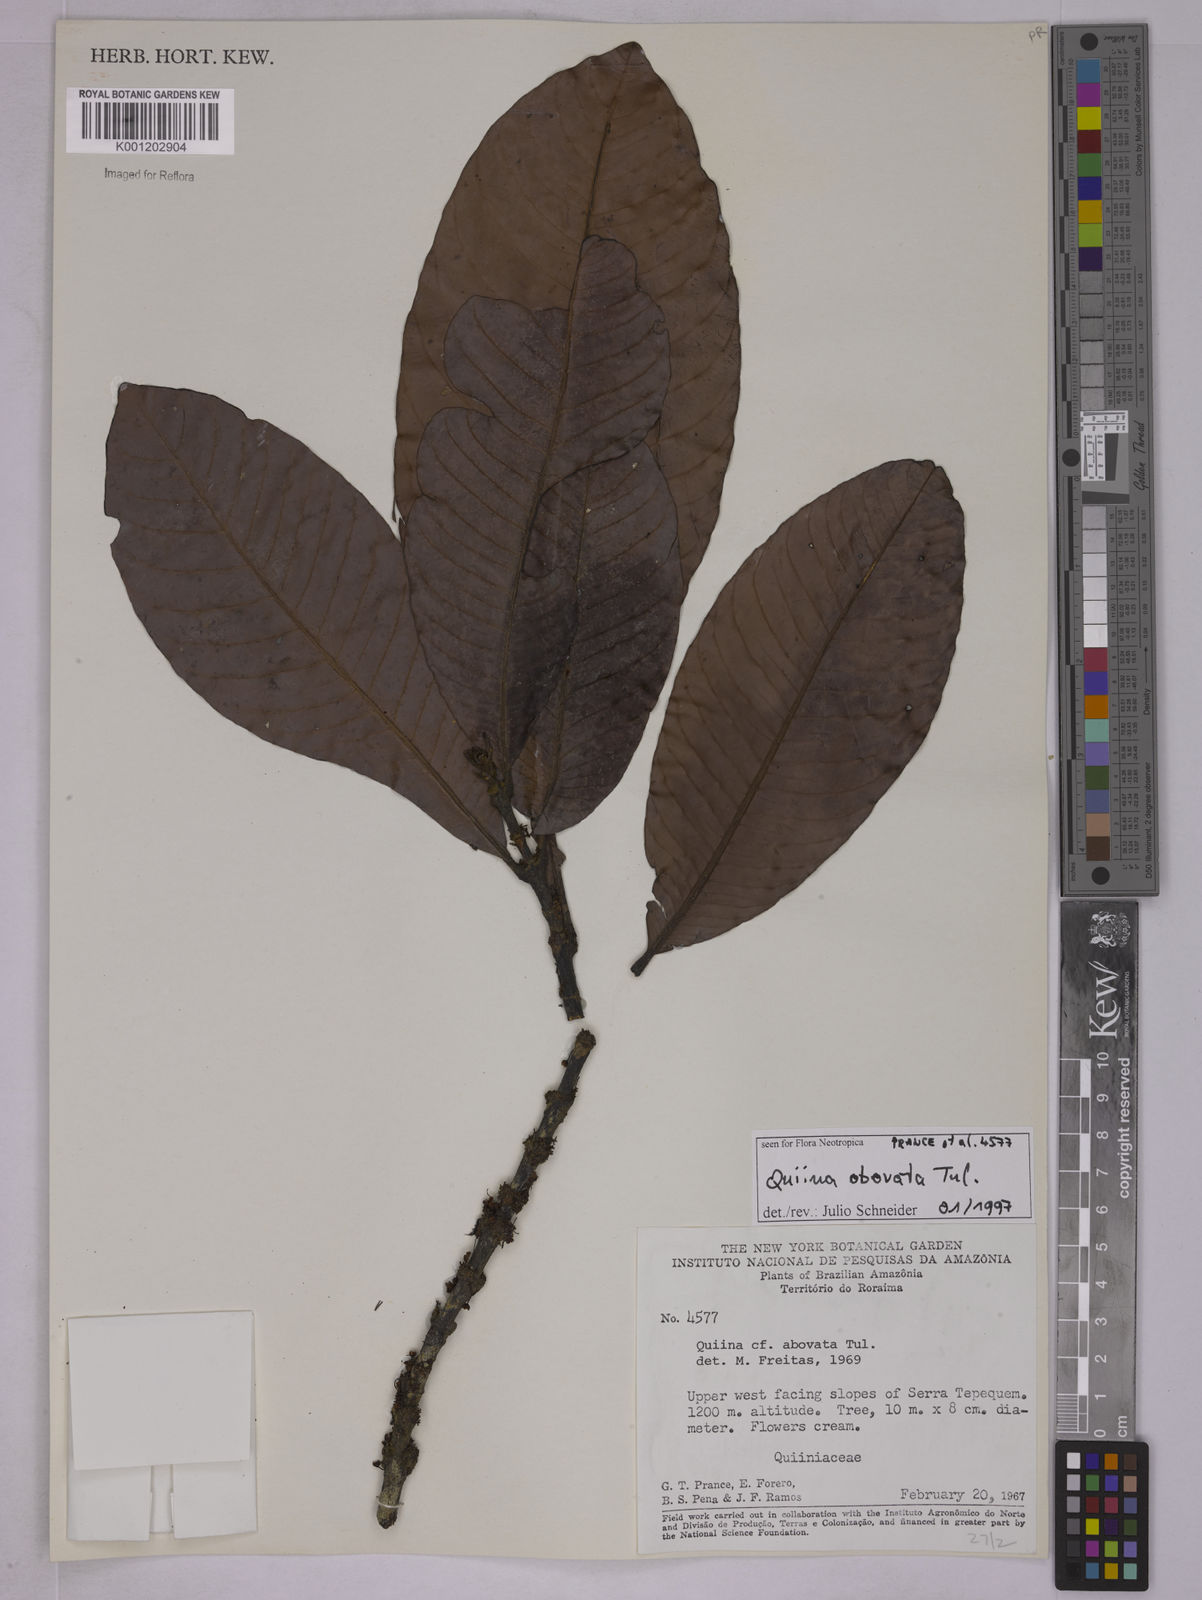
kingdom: Plantae
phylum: Tracheophyta
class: Magnoliopsida
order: Malpighiales
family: Quiinaceae
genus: Quiina
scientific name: Quiina obovata
